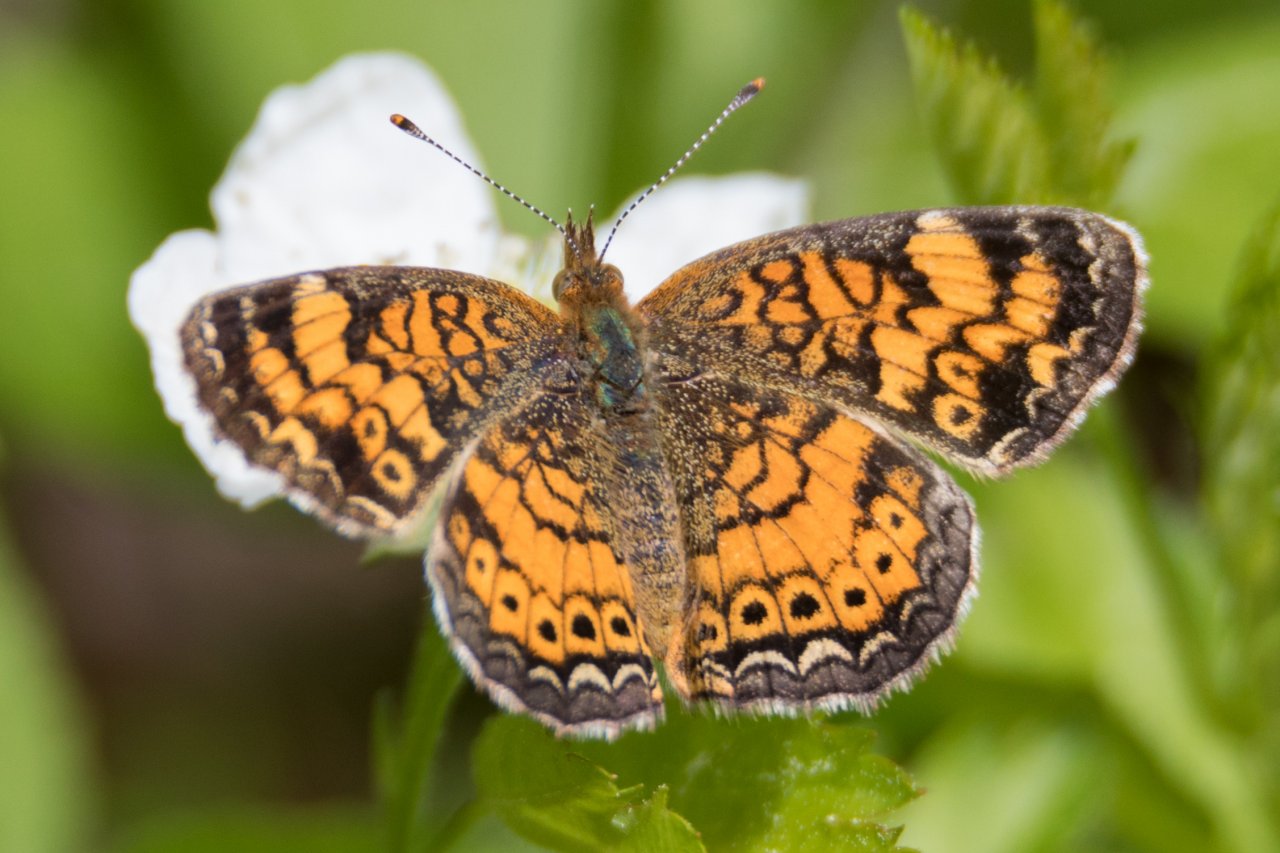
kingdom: Animalia
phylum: Arthropoda
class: Insecta
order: Lepidoptera
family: Nymphalidae
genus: Phyciodes
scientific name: Phyciodes tharos
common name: Pearl Crescent
